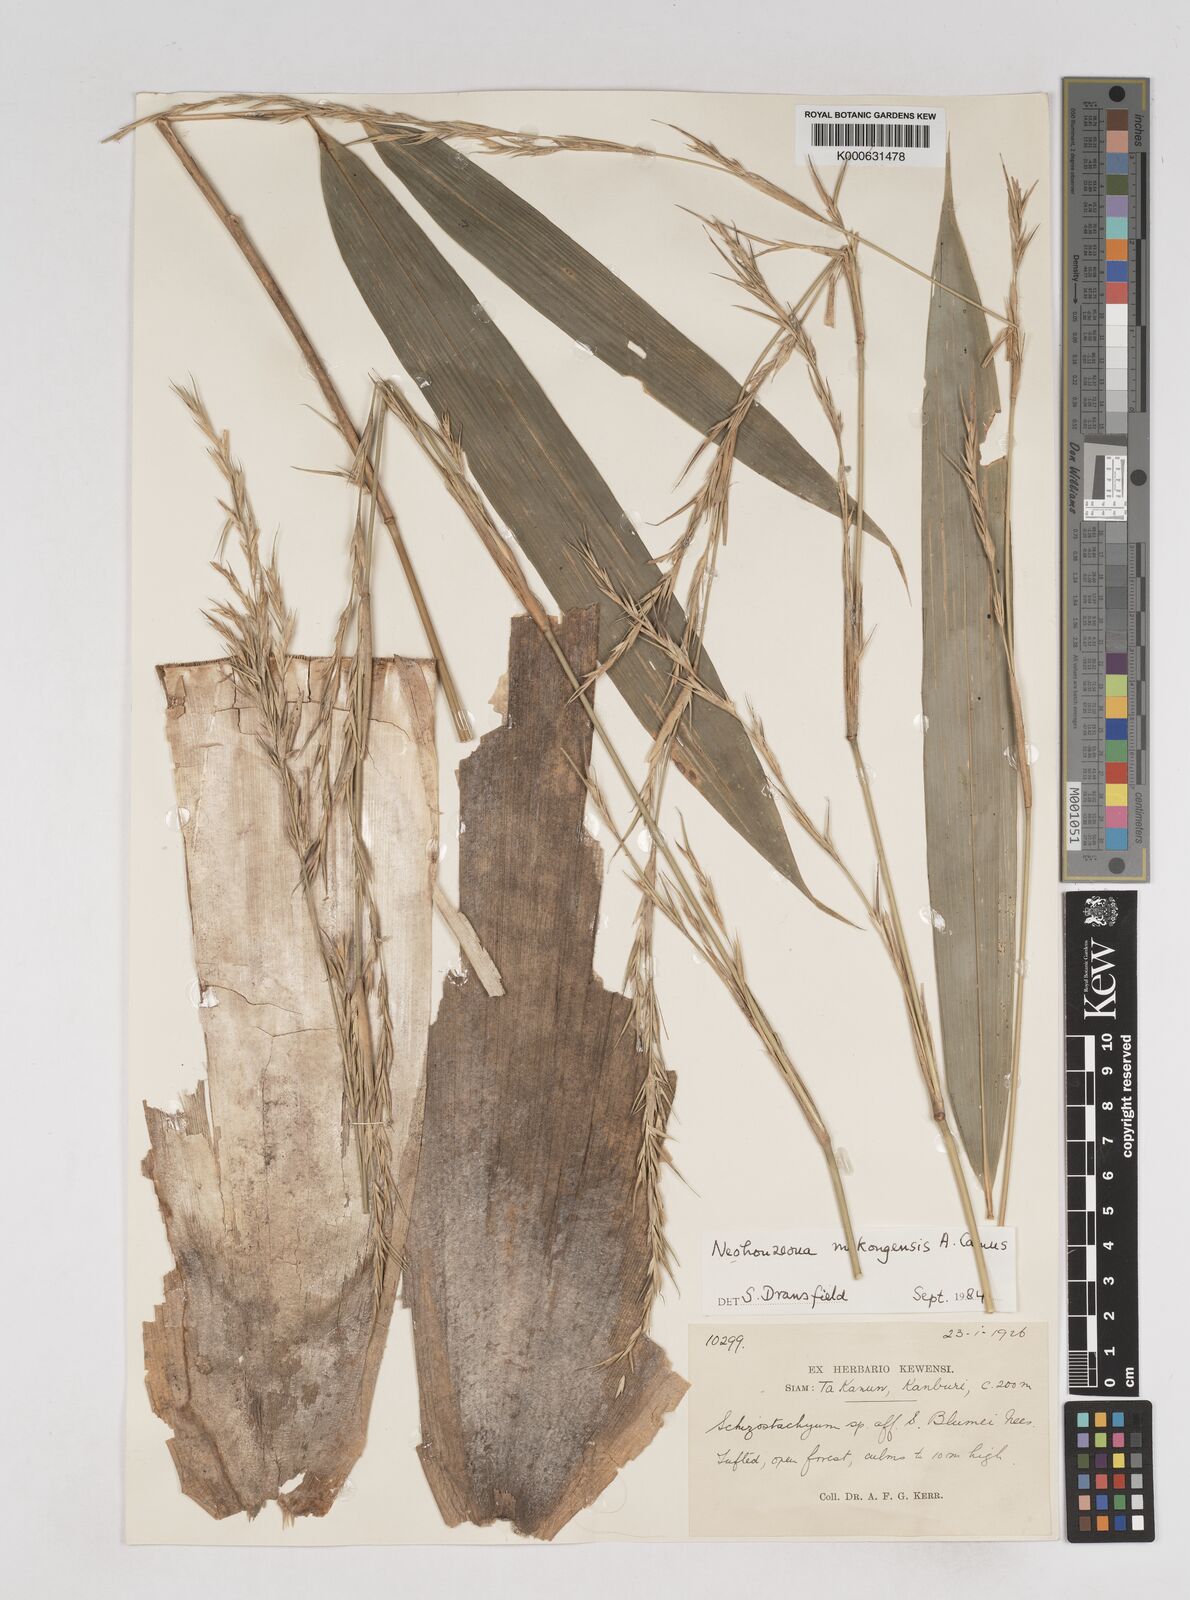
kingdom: Plantae
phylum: Tracheophyta
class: Liliopsida
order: Poales
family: Poaceae
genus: Schizostachyum
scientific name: Schizostachyum mekongensis
